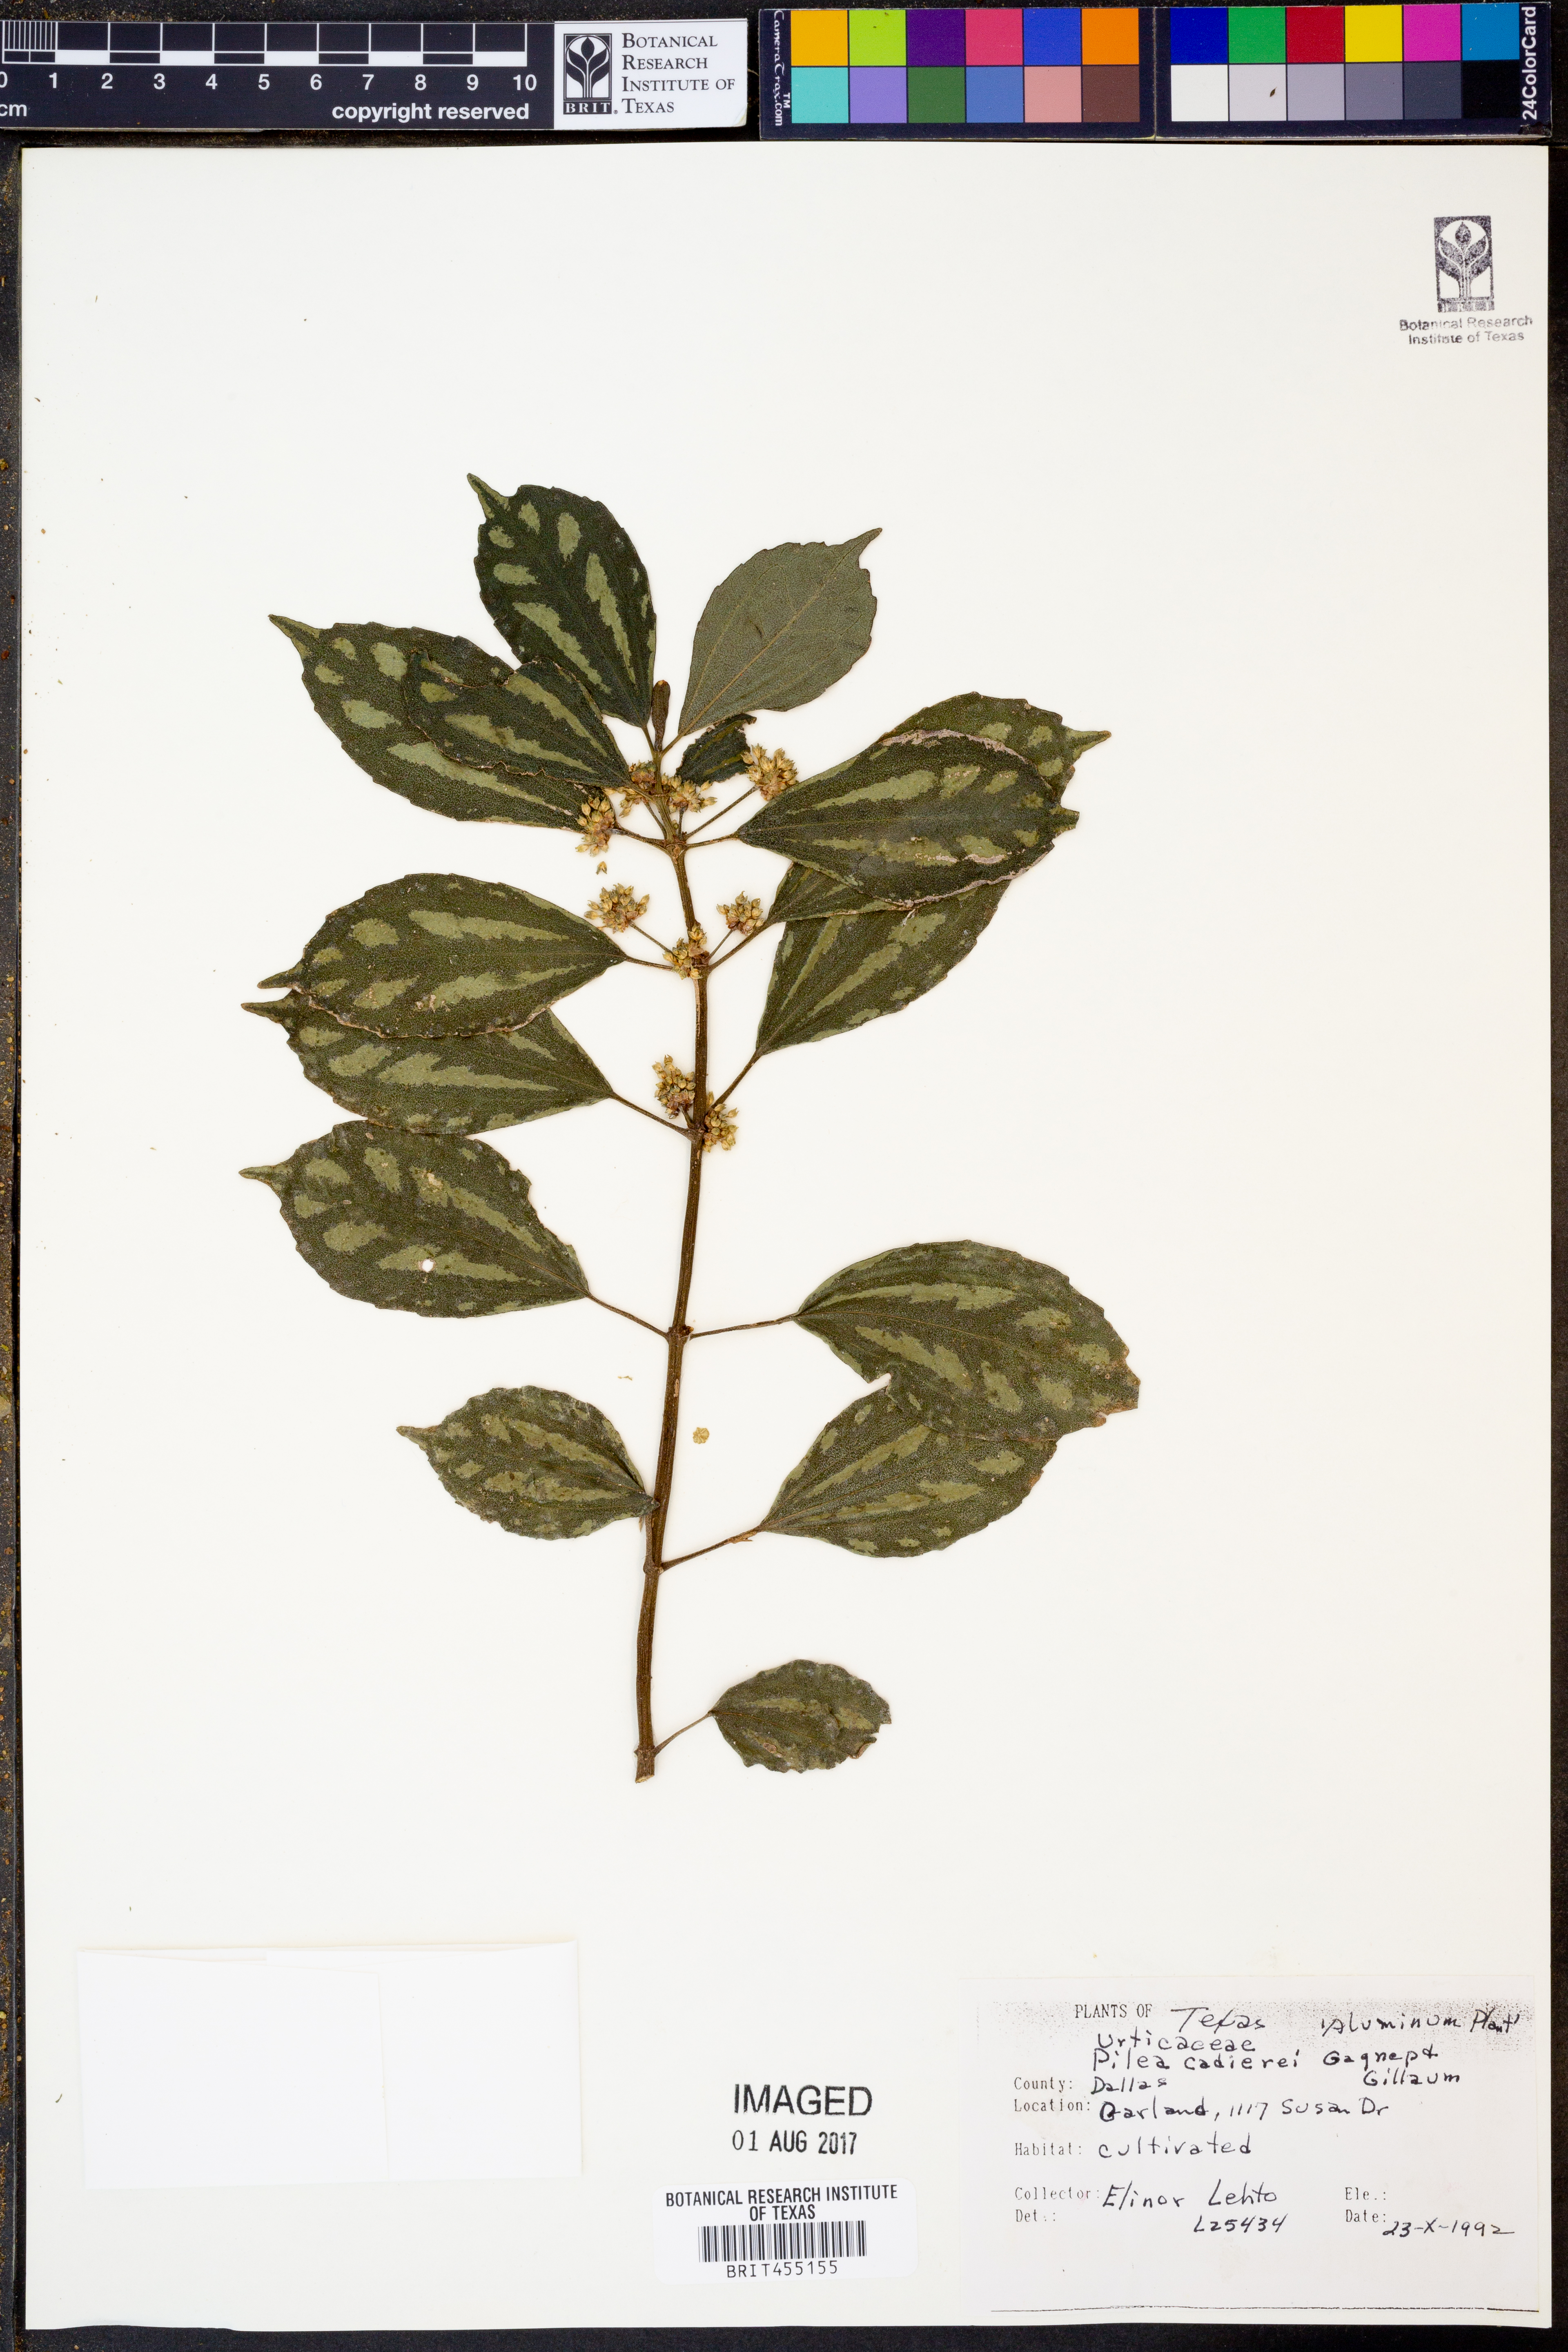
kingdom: Plantae
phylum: Tracheophyta
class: Magnoliopsida
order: Rosales
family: Urticaceae
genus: Pilea
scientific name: Pilea cadierei
